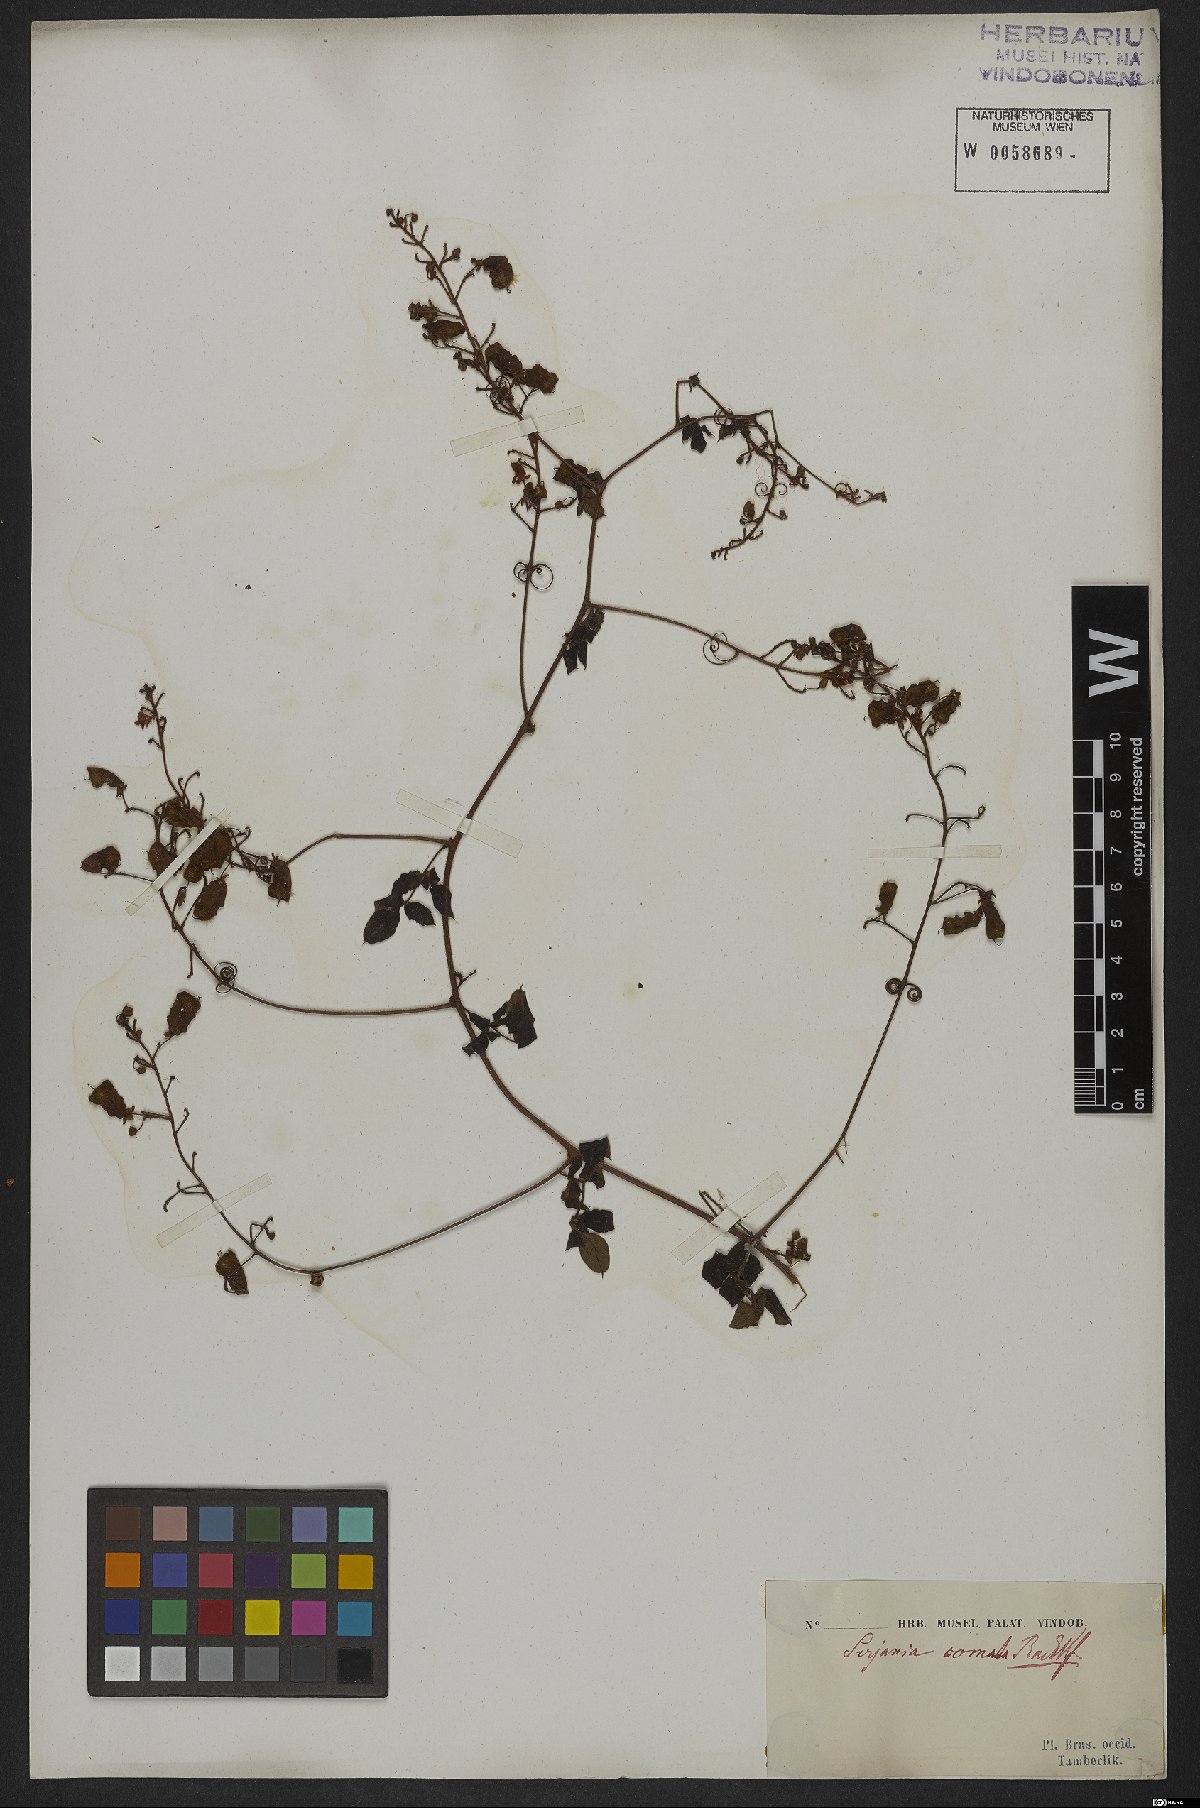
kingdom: Plantae
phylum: Tracheophyta
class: Magnoliopsida
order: Sapindales
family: Sapindaceae
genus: Serjania
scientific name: Serjania comata
